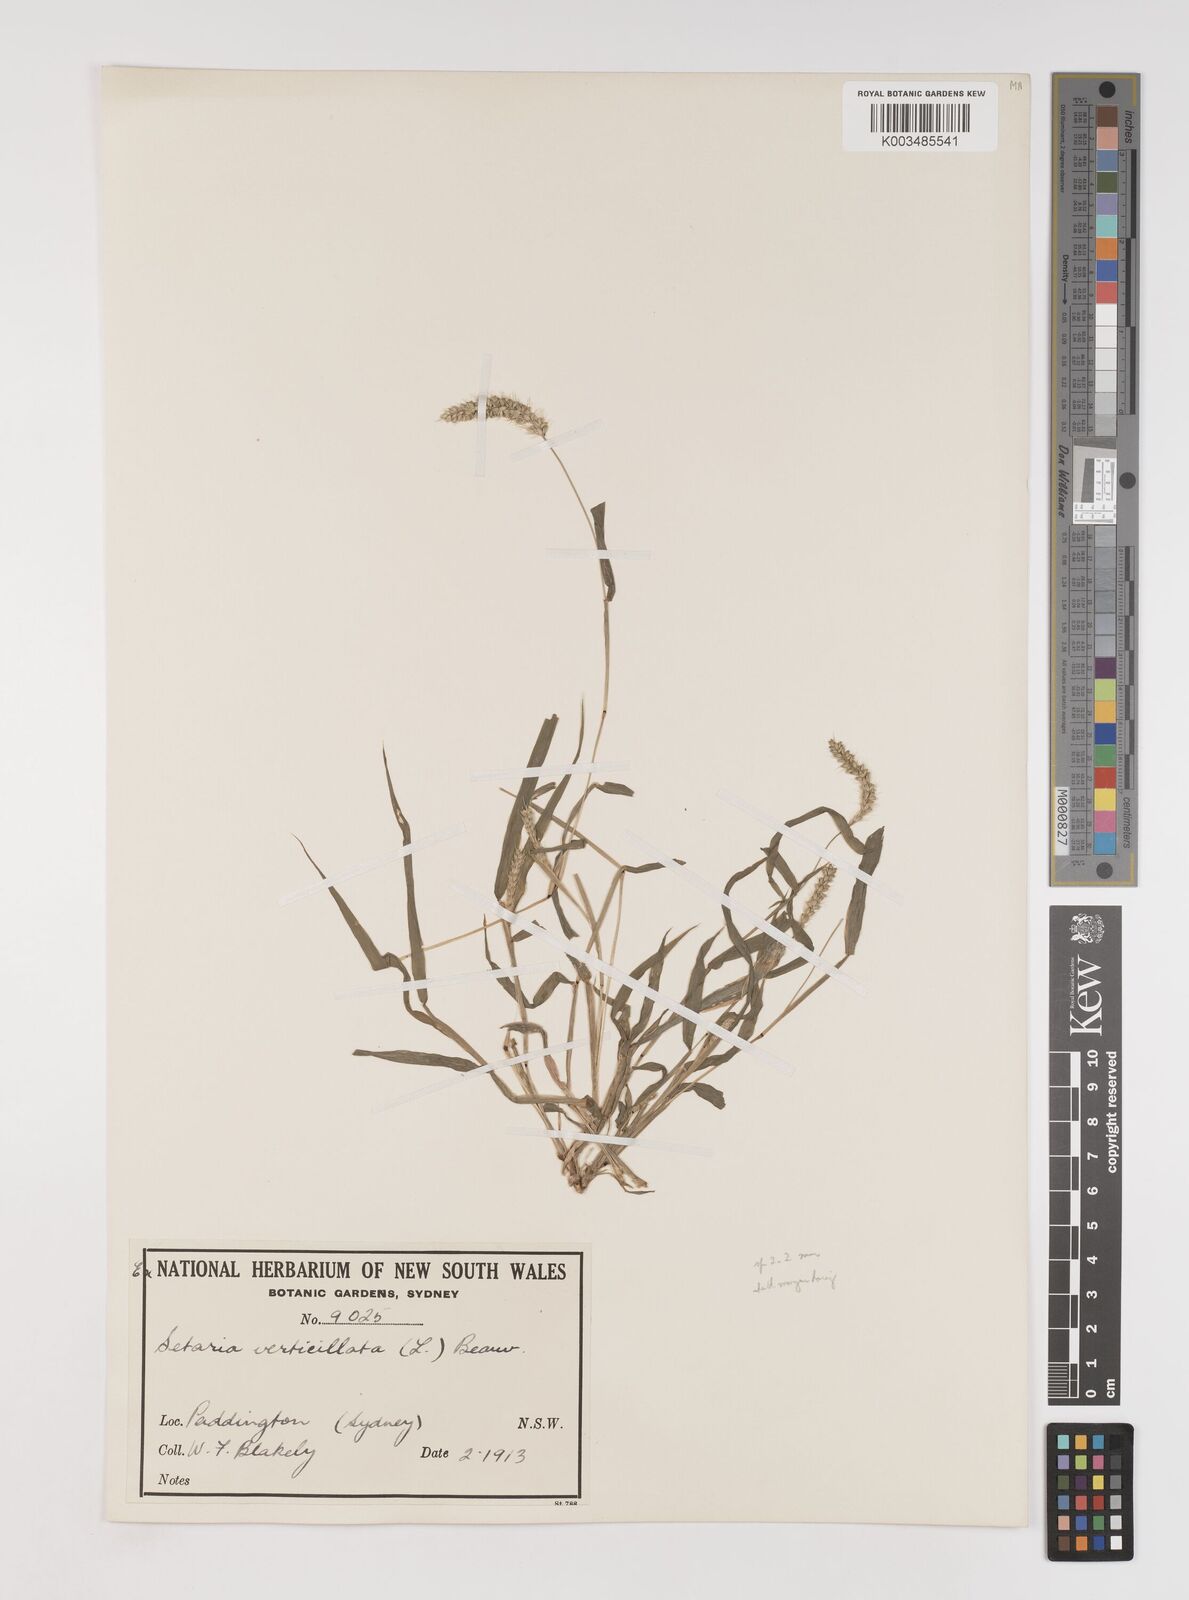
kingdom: Plantae
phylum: Tracheophyta
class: Liliopsida
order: Poales
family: Poaceae
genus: Setaria
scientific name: Setaria verticillata
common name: Hooked bristlegrass
